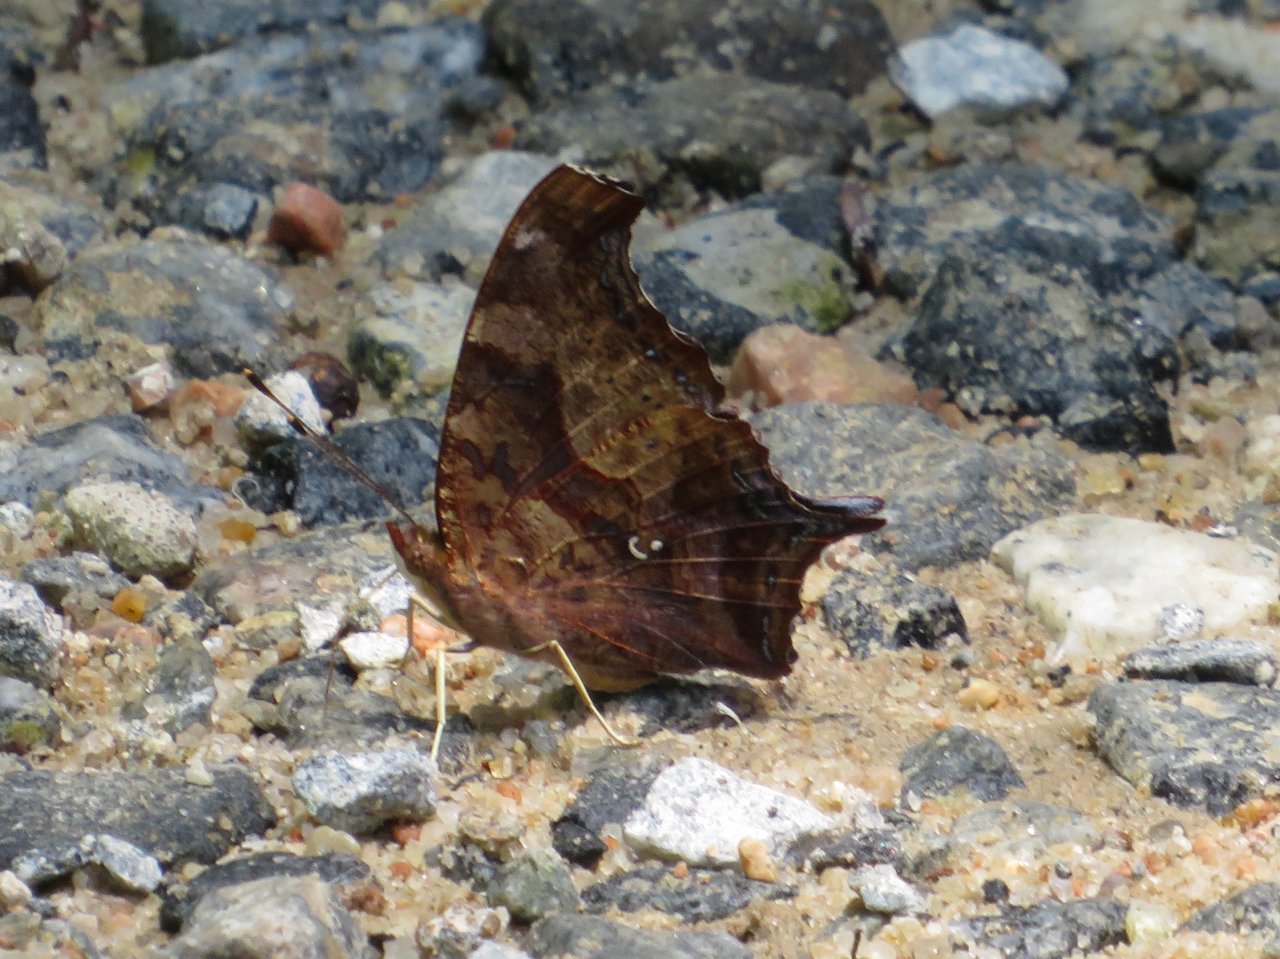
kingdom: Animalia
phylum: Arthropoda
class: Insecta
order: Lepidoptera
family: Nymphalidae
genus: Polygonia
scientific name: Polygonia interrogationis
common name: Question Mark
